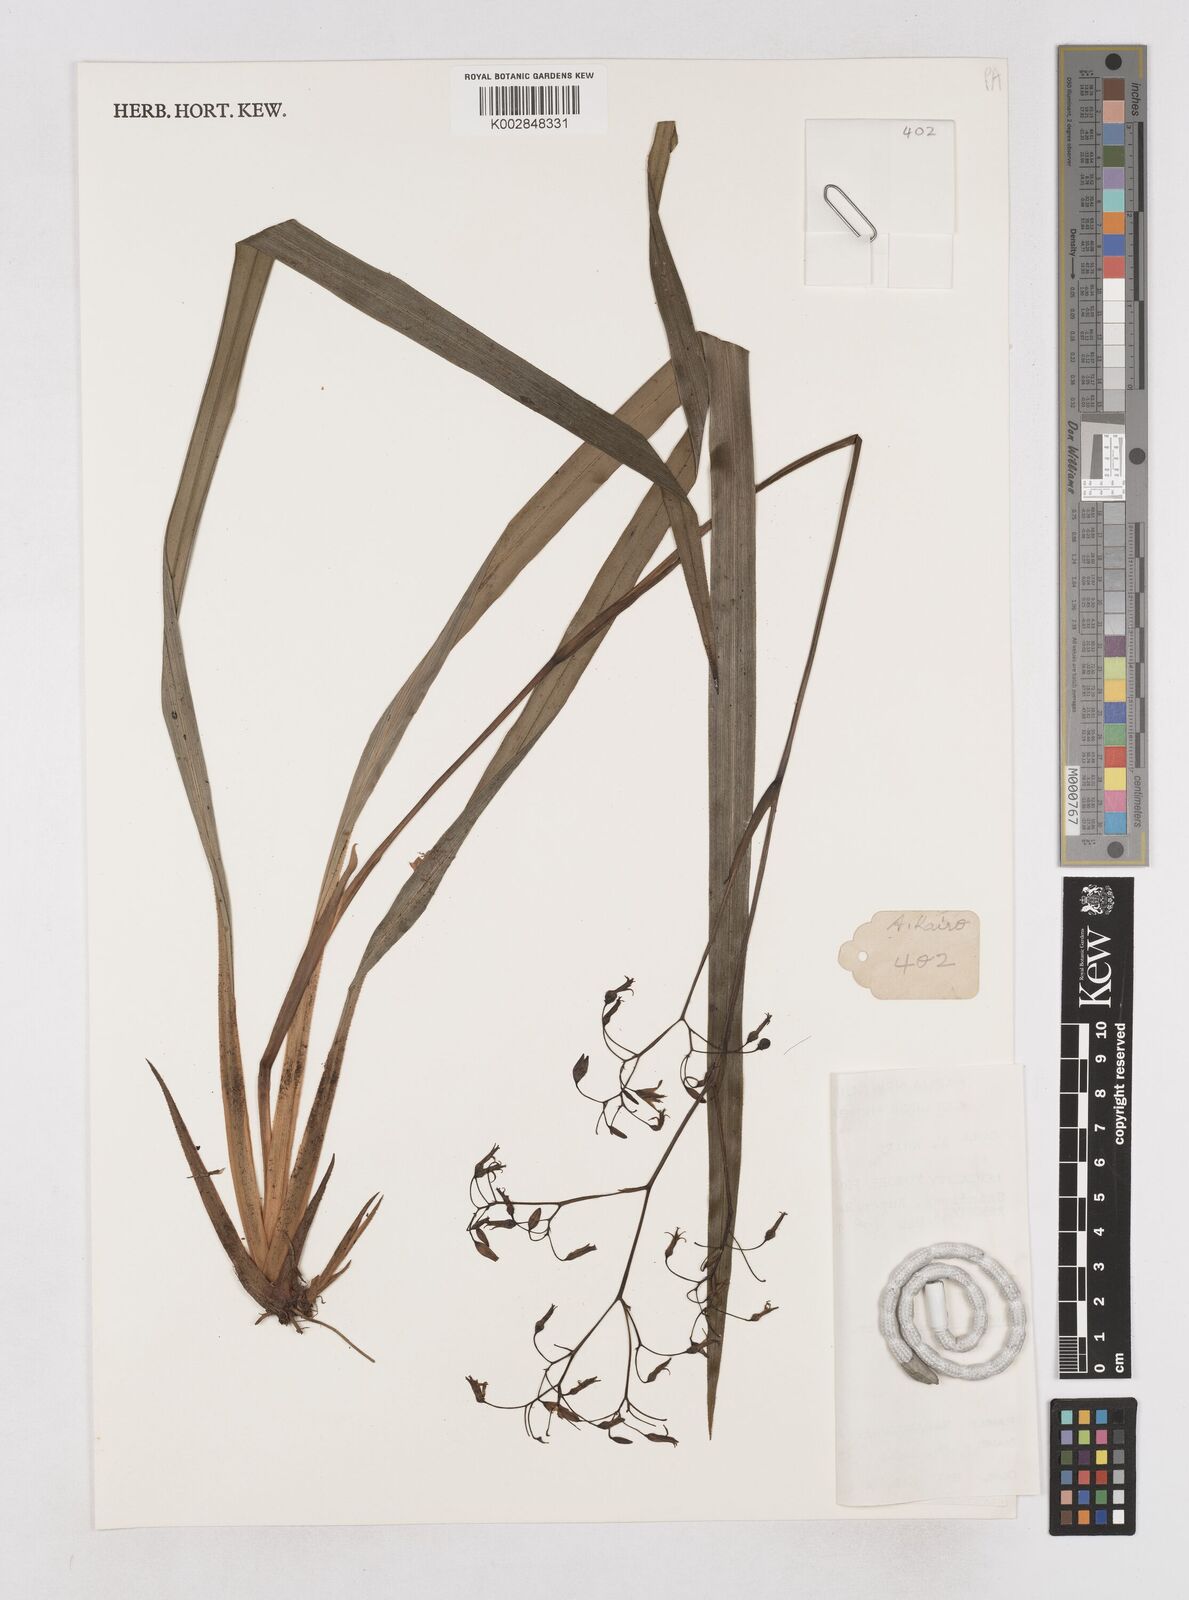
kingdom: Plantae
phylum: Tracheophyta
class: Liliopsida
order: Asparagales
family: Asphodelaceae
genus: Dianella
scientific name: Dianella ensifolia
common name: New zealand lilyplant
